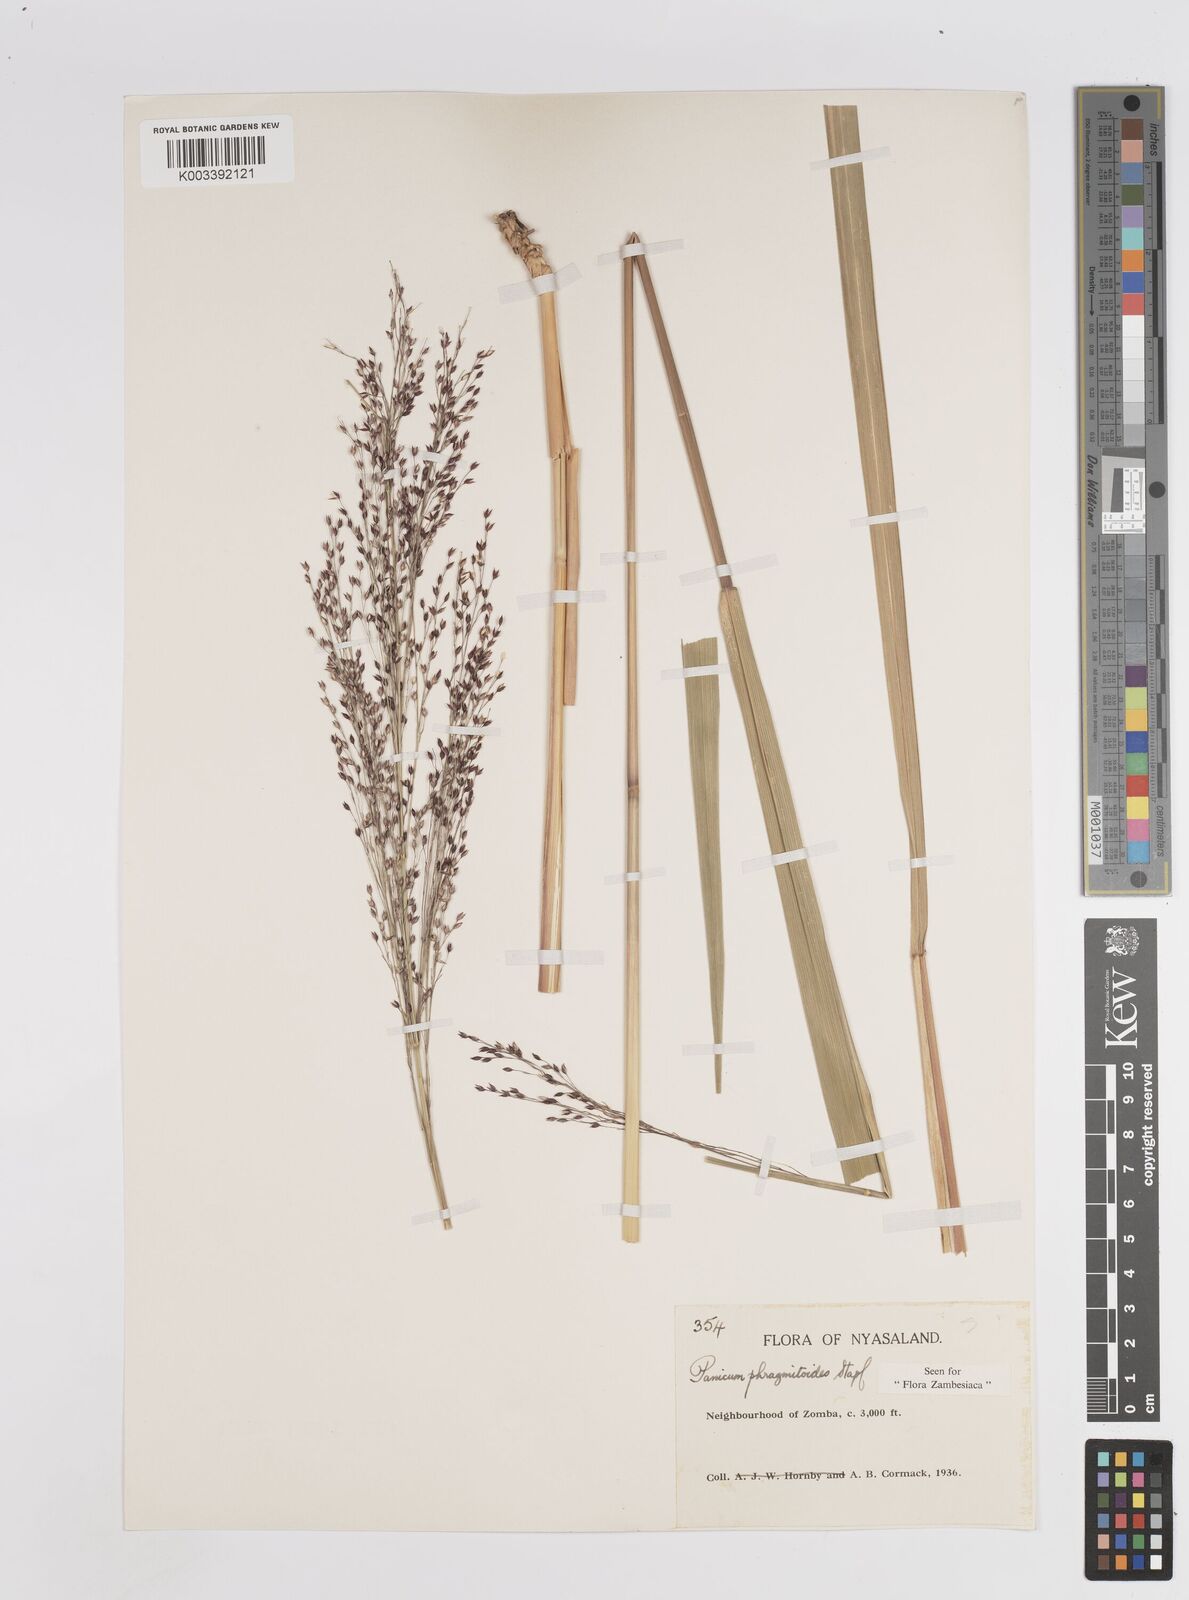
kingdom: Plantae
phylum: Tracheophyta
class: Liliopsida
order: Poales
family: Poaceae
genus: Panicum
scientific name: Panicum phragmitoides
